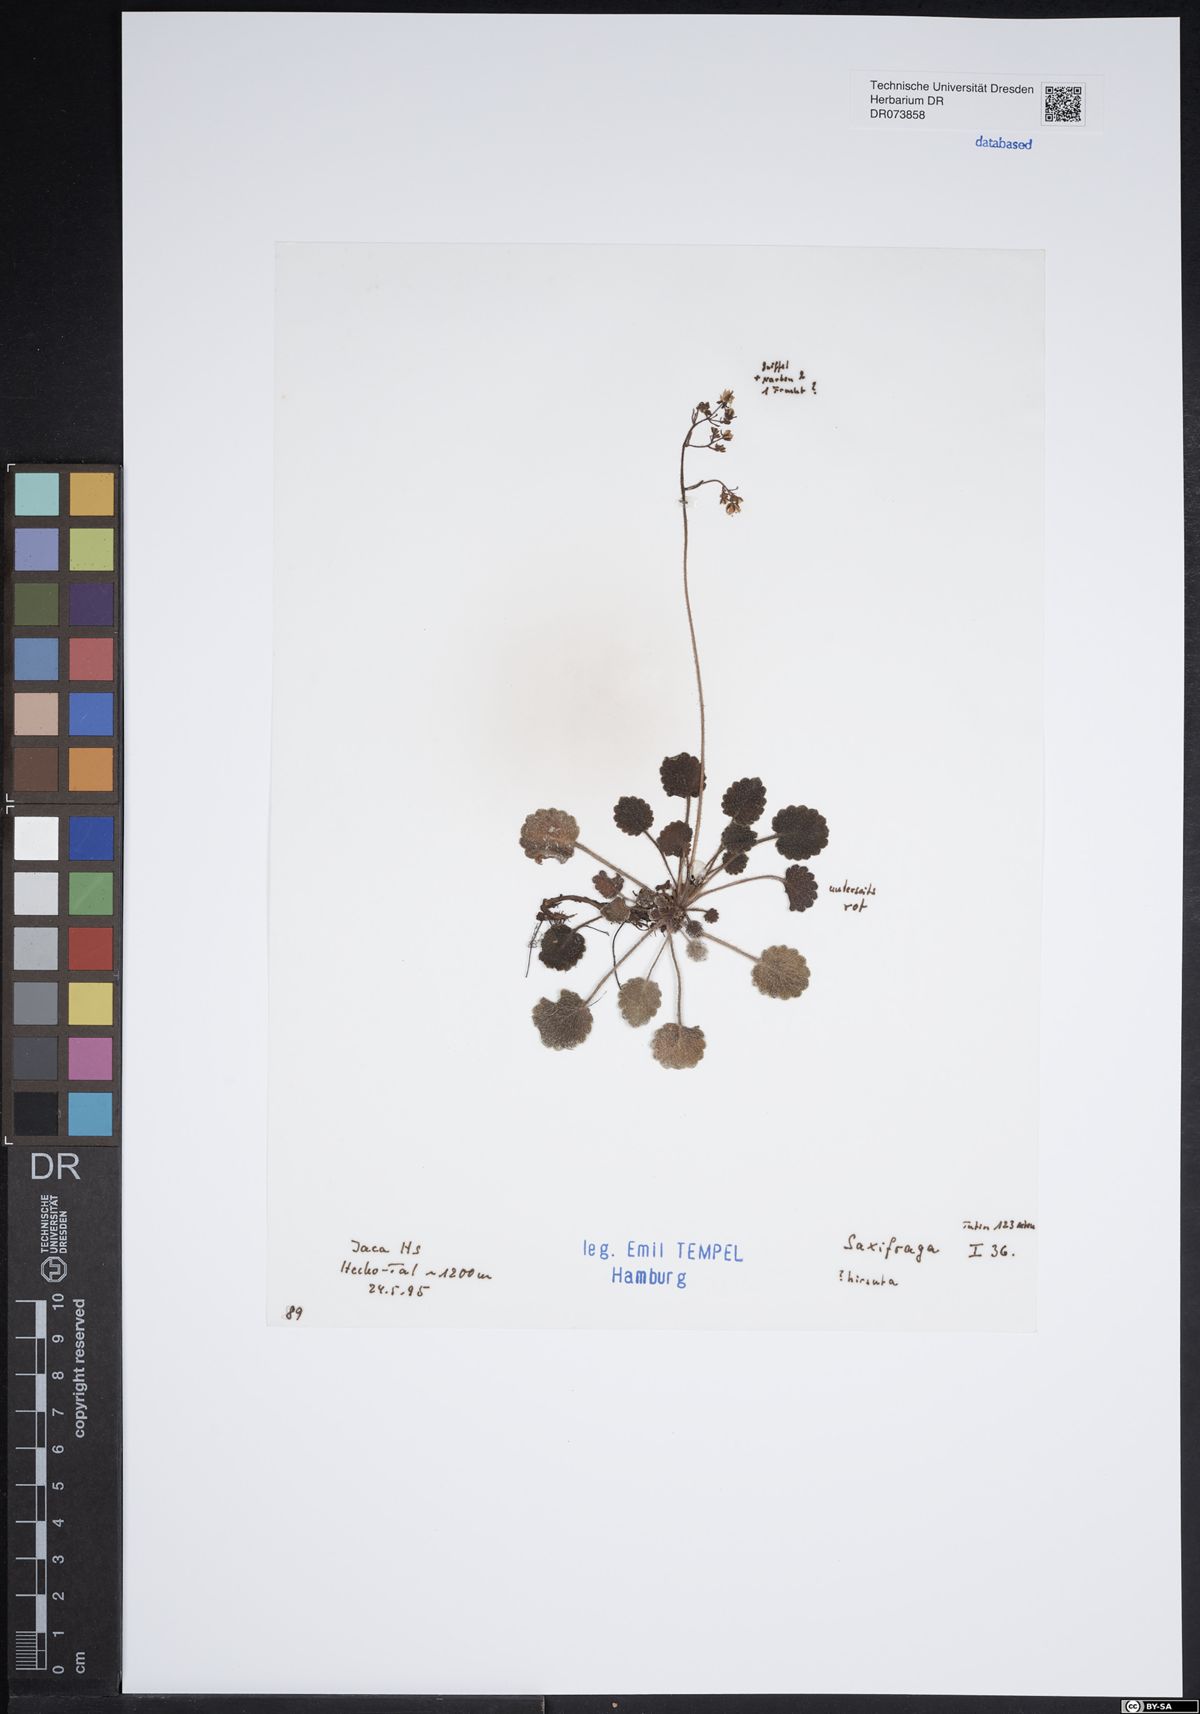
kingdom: Plantae
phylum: Tracheophyta
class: Magnoliopsida
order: Saxifragales
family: Saxifragaceae
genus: Saxifraga
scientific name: Saxifraga hirsuta
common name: Kidney saxifrage
